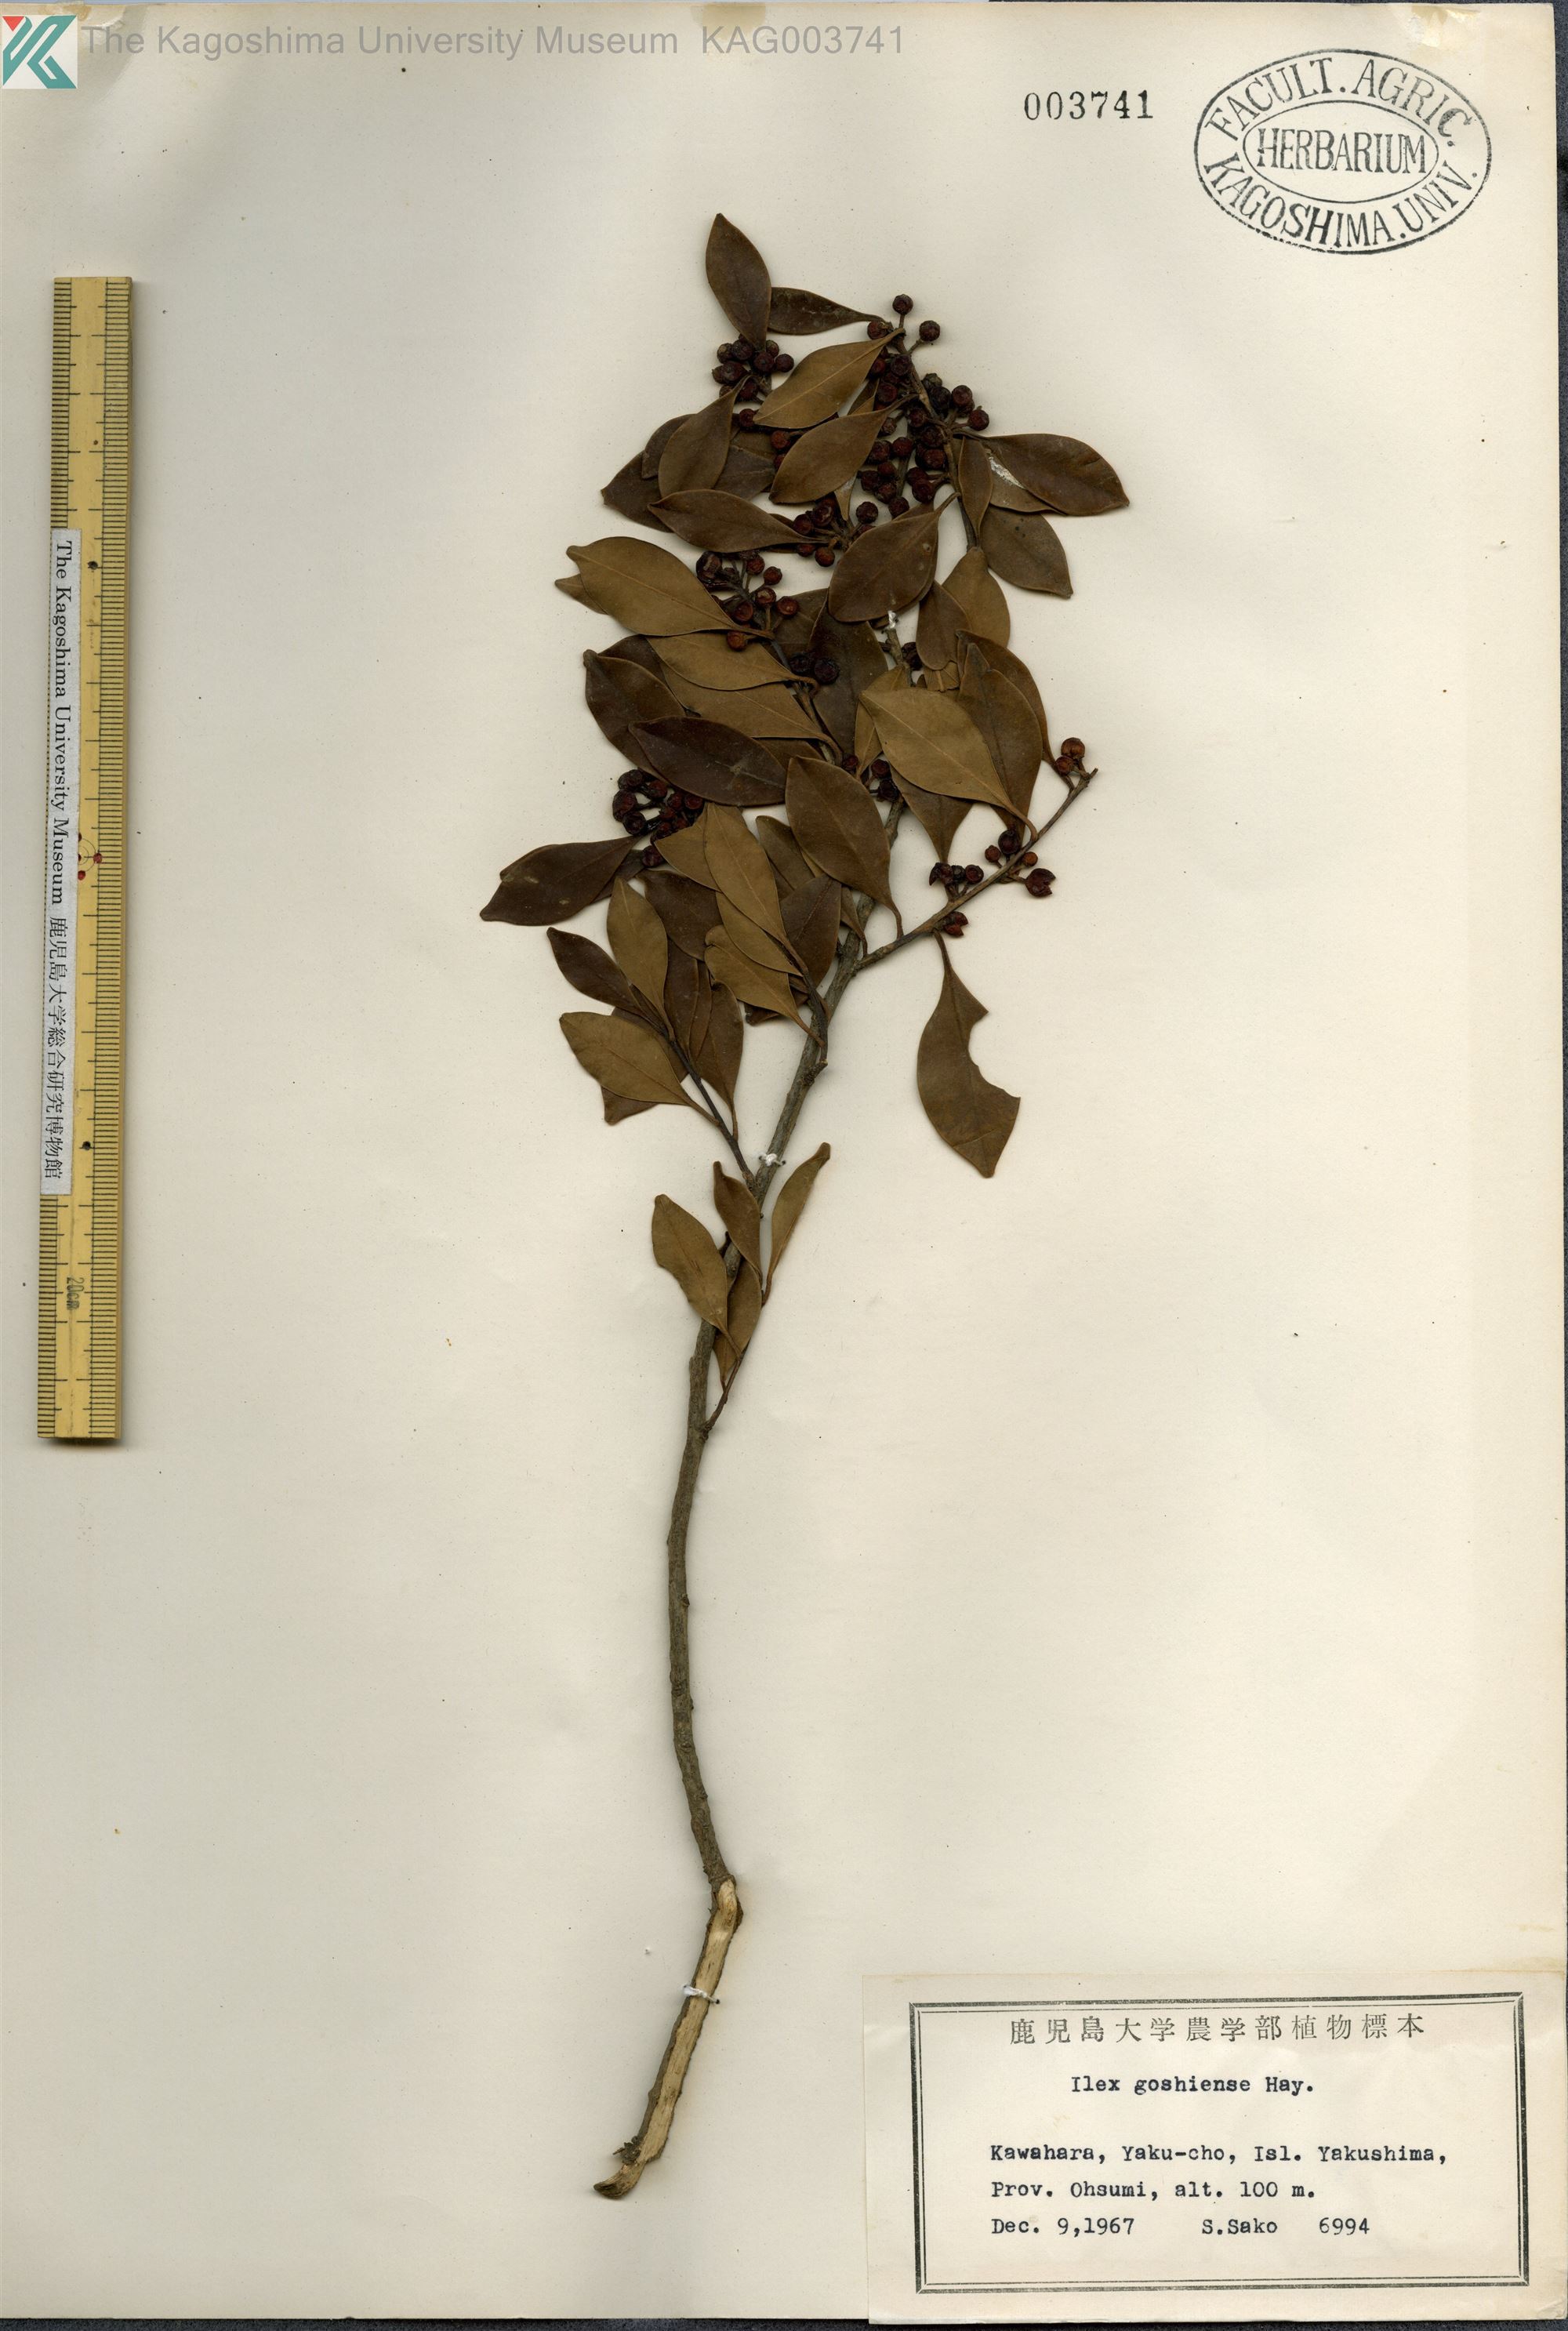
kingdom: Plantae
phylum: Tracheophyta
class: Magnoliopsida
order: Aquifoliales
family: Aquifoliaceae
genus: Ilex
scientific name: Ilex goshiensis
